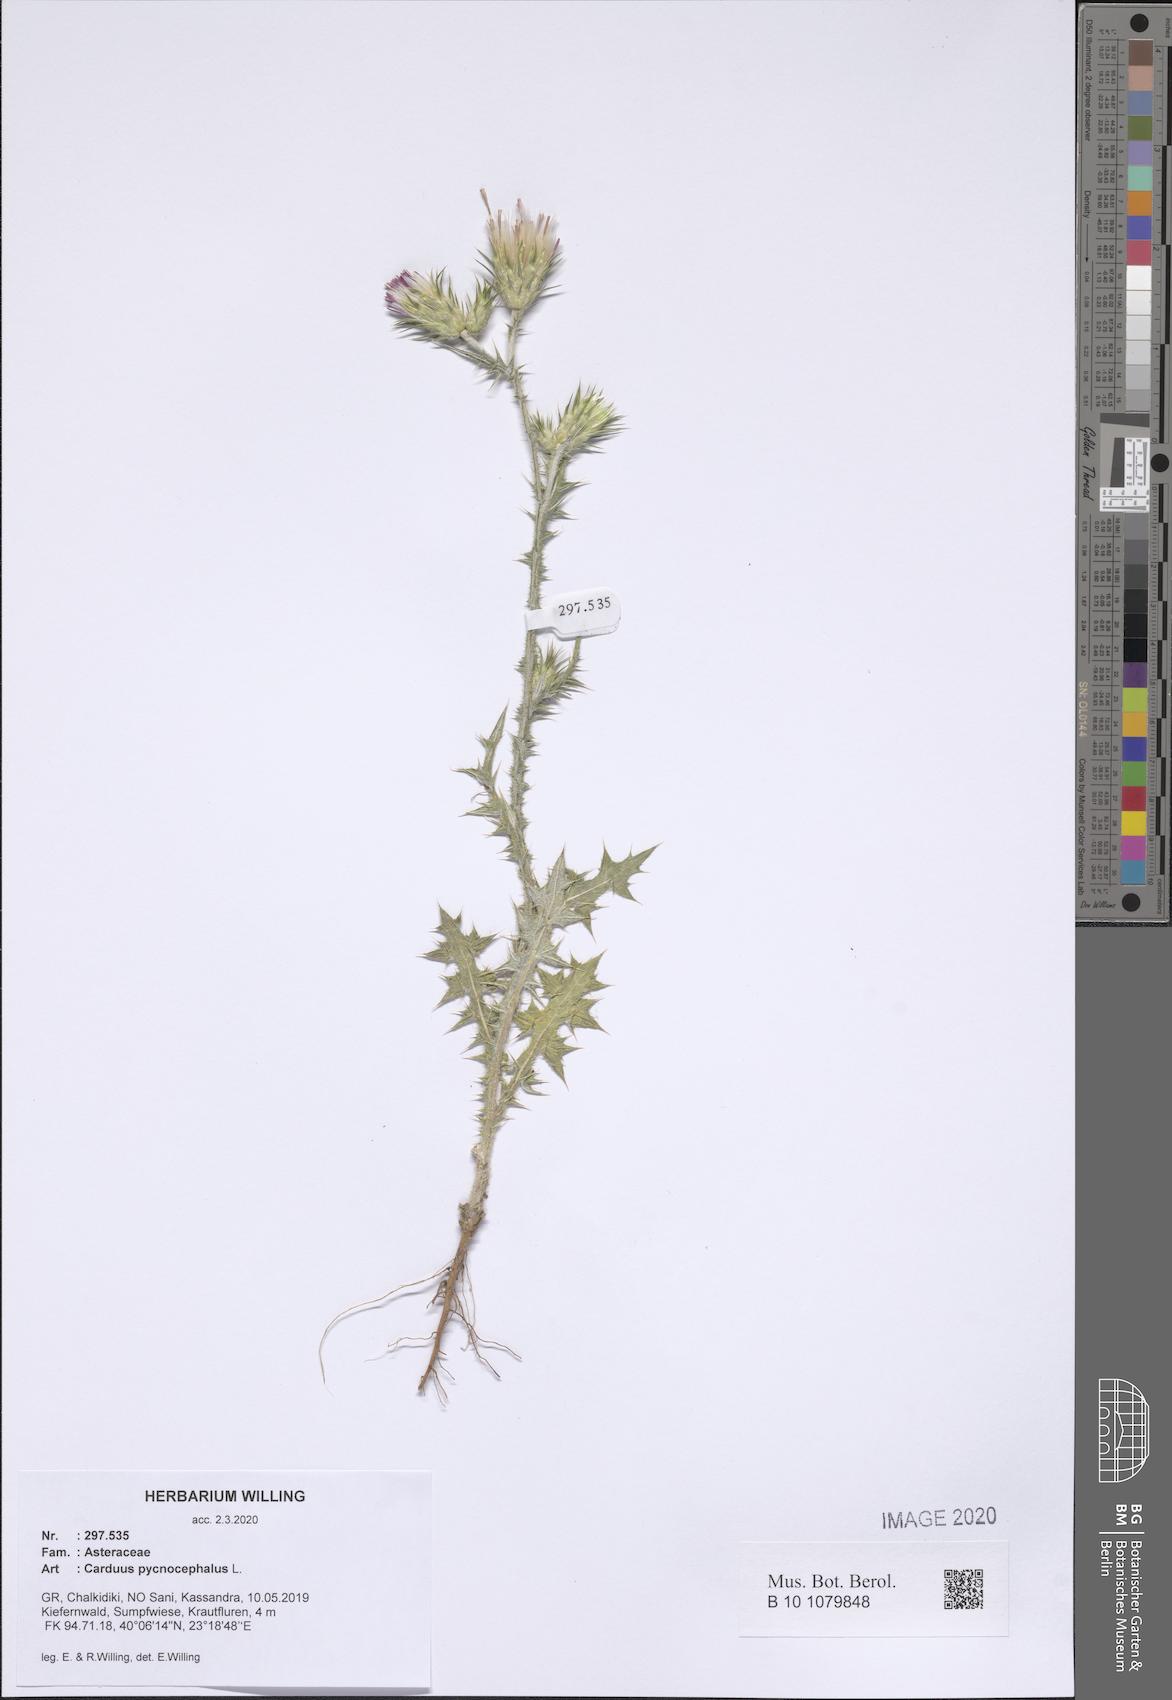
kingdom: Plantae
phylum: Tracheophyta
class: Magnoliopsida
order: Asterales
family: Asteraceae
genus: Carduus
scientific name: Carduus pycnocephalus
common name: Plymouth thistle
